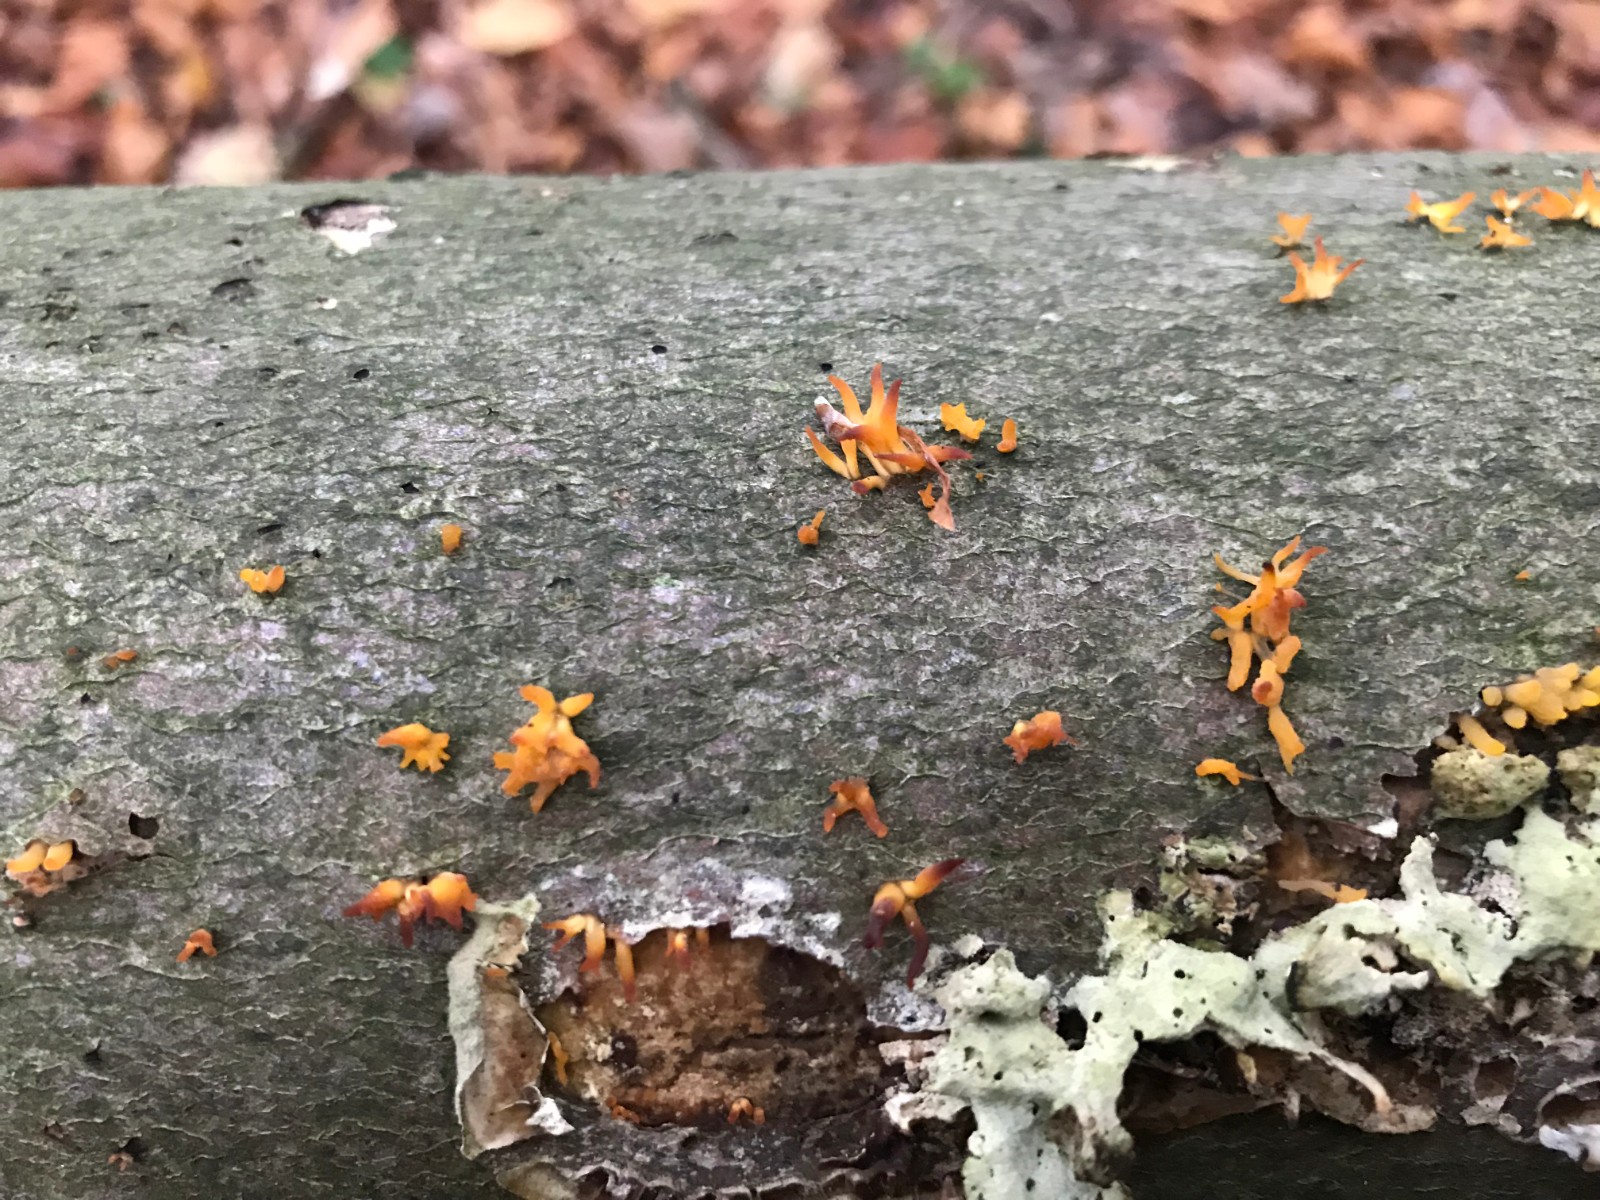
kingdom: Fungi
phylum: Basidiomycota
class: Dacrymycetes
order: Dacrymycetales
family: Dacrymycetaceae
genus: Calocera
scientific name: Calocera cornea
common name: liden guldgaffel
